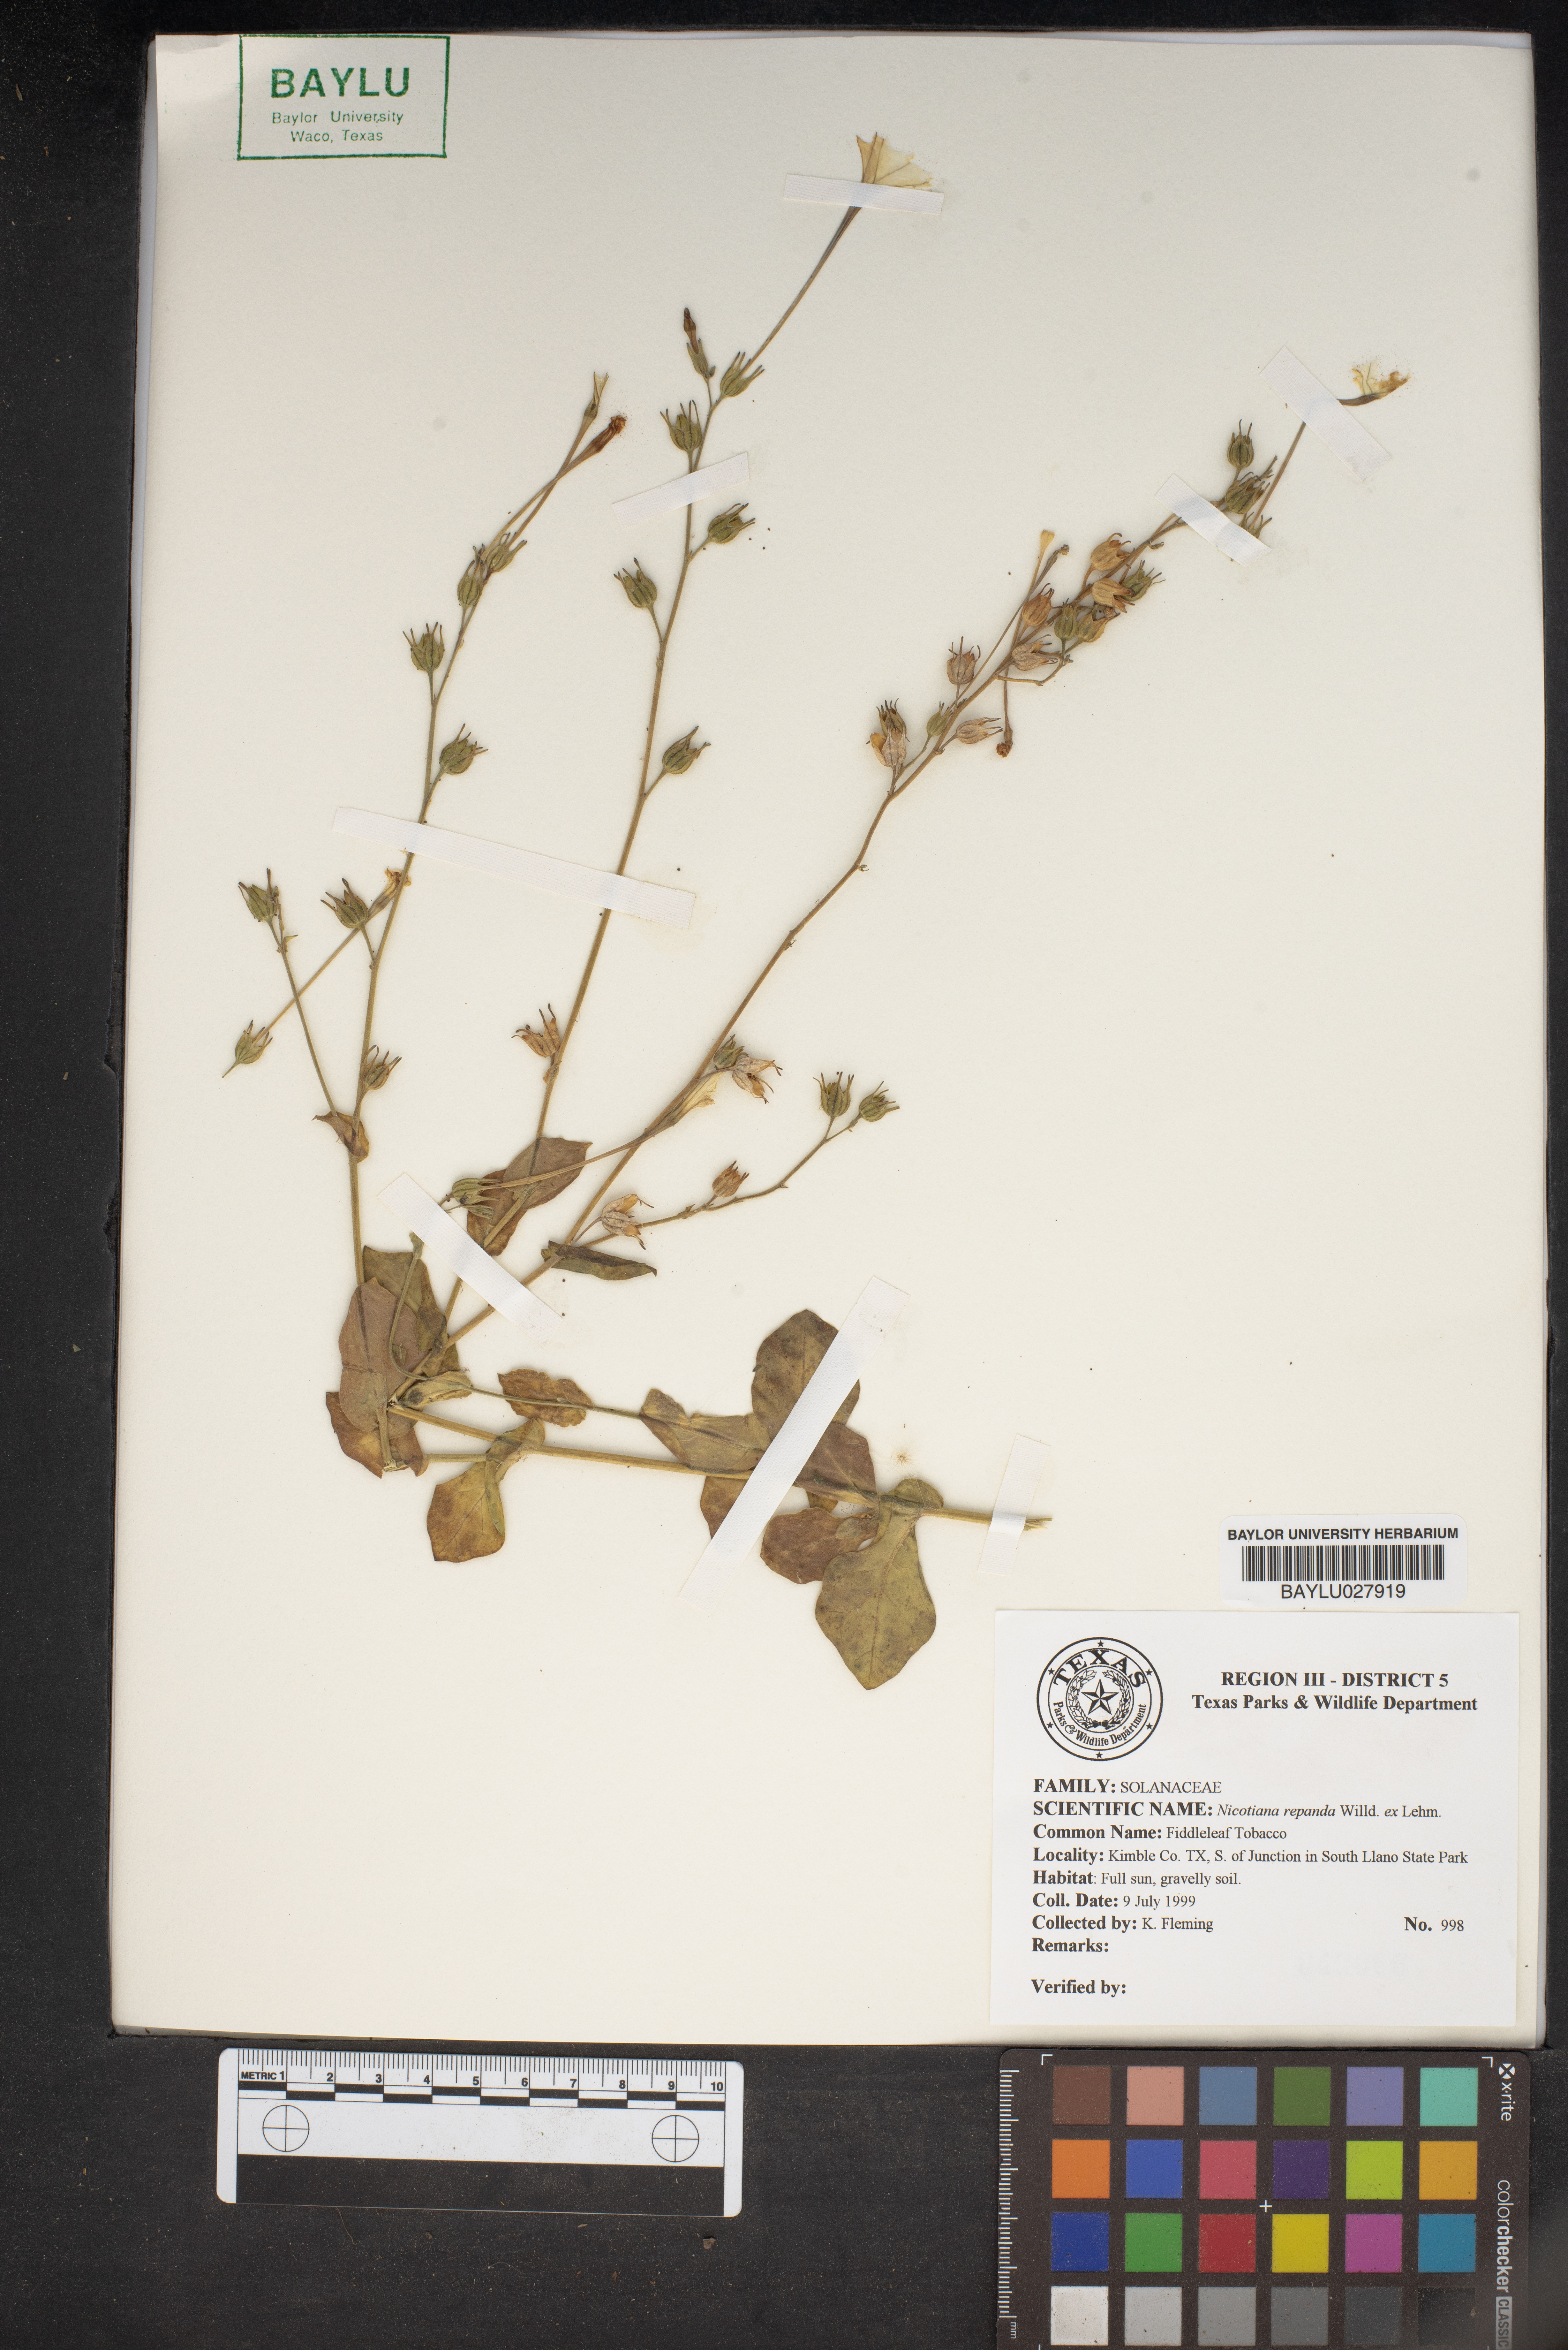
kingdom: Plantae
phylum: Tracheophyta
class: Magnoliopsida
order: Solanales
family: Solanaceae
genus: Nicotiana
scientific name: Nicotiana repanda
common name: Fiddle-leaf tobacco
